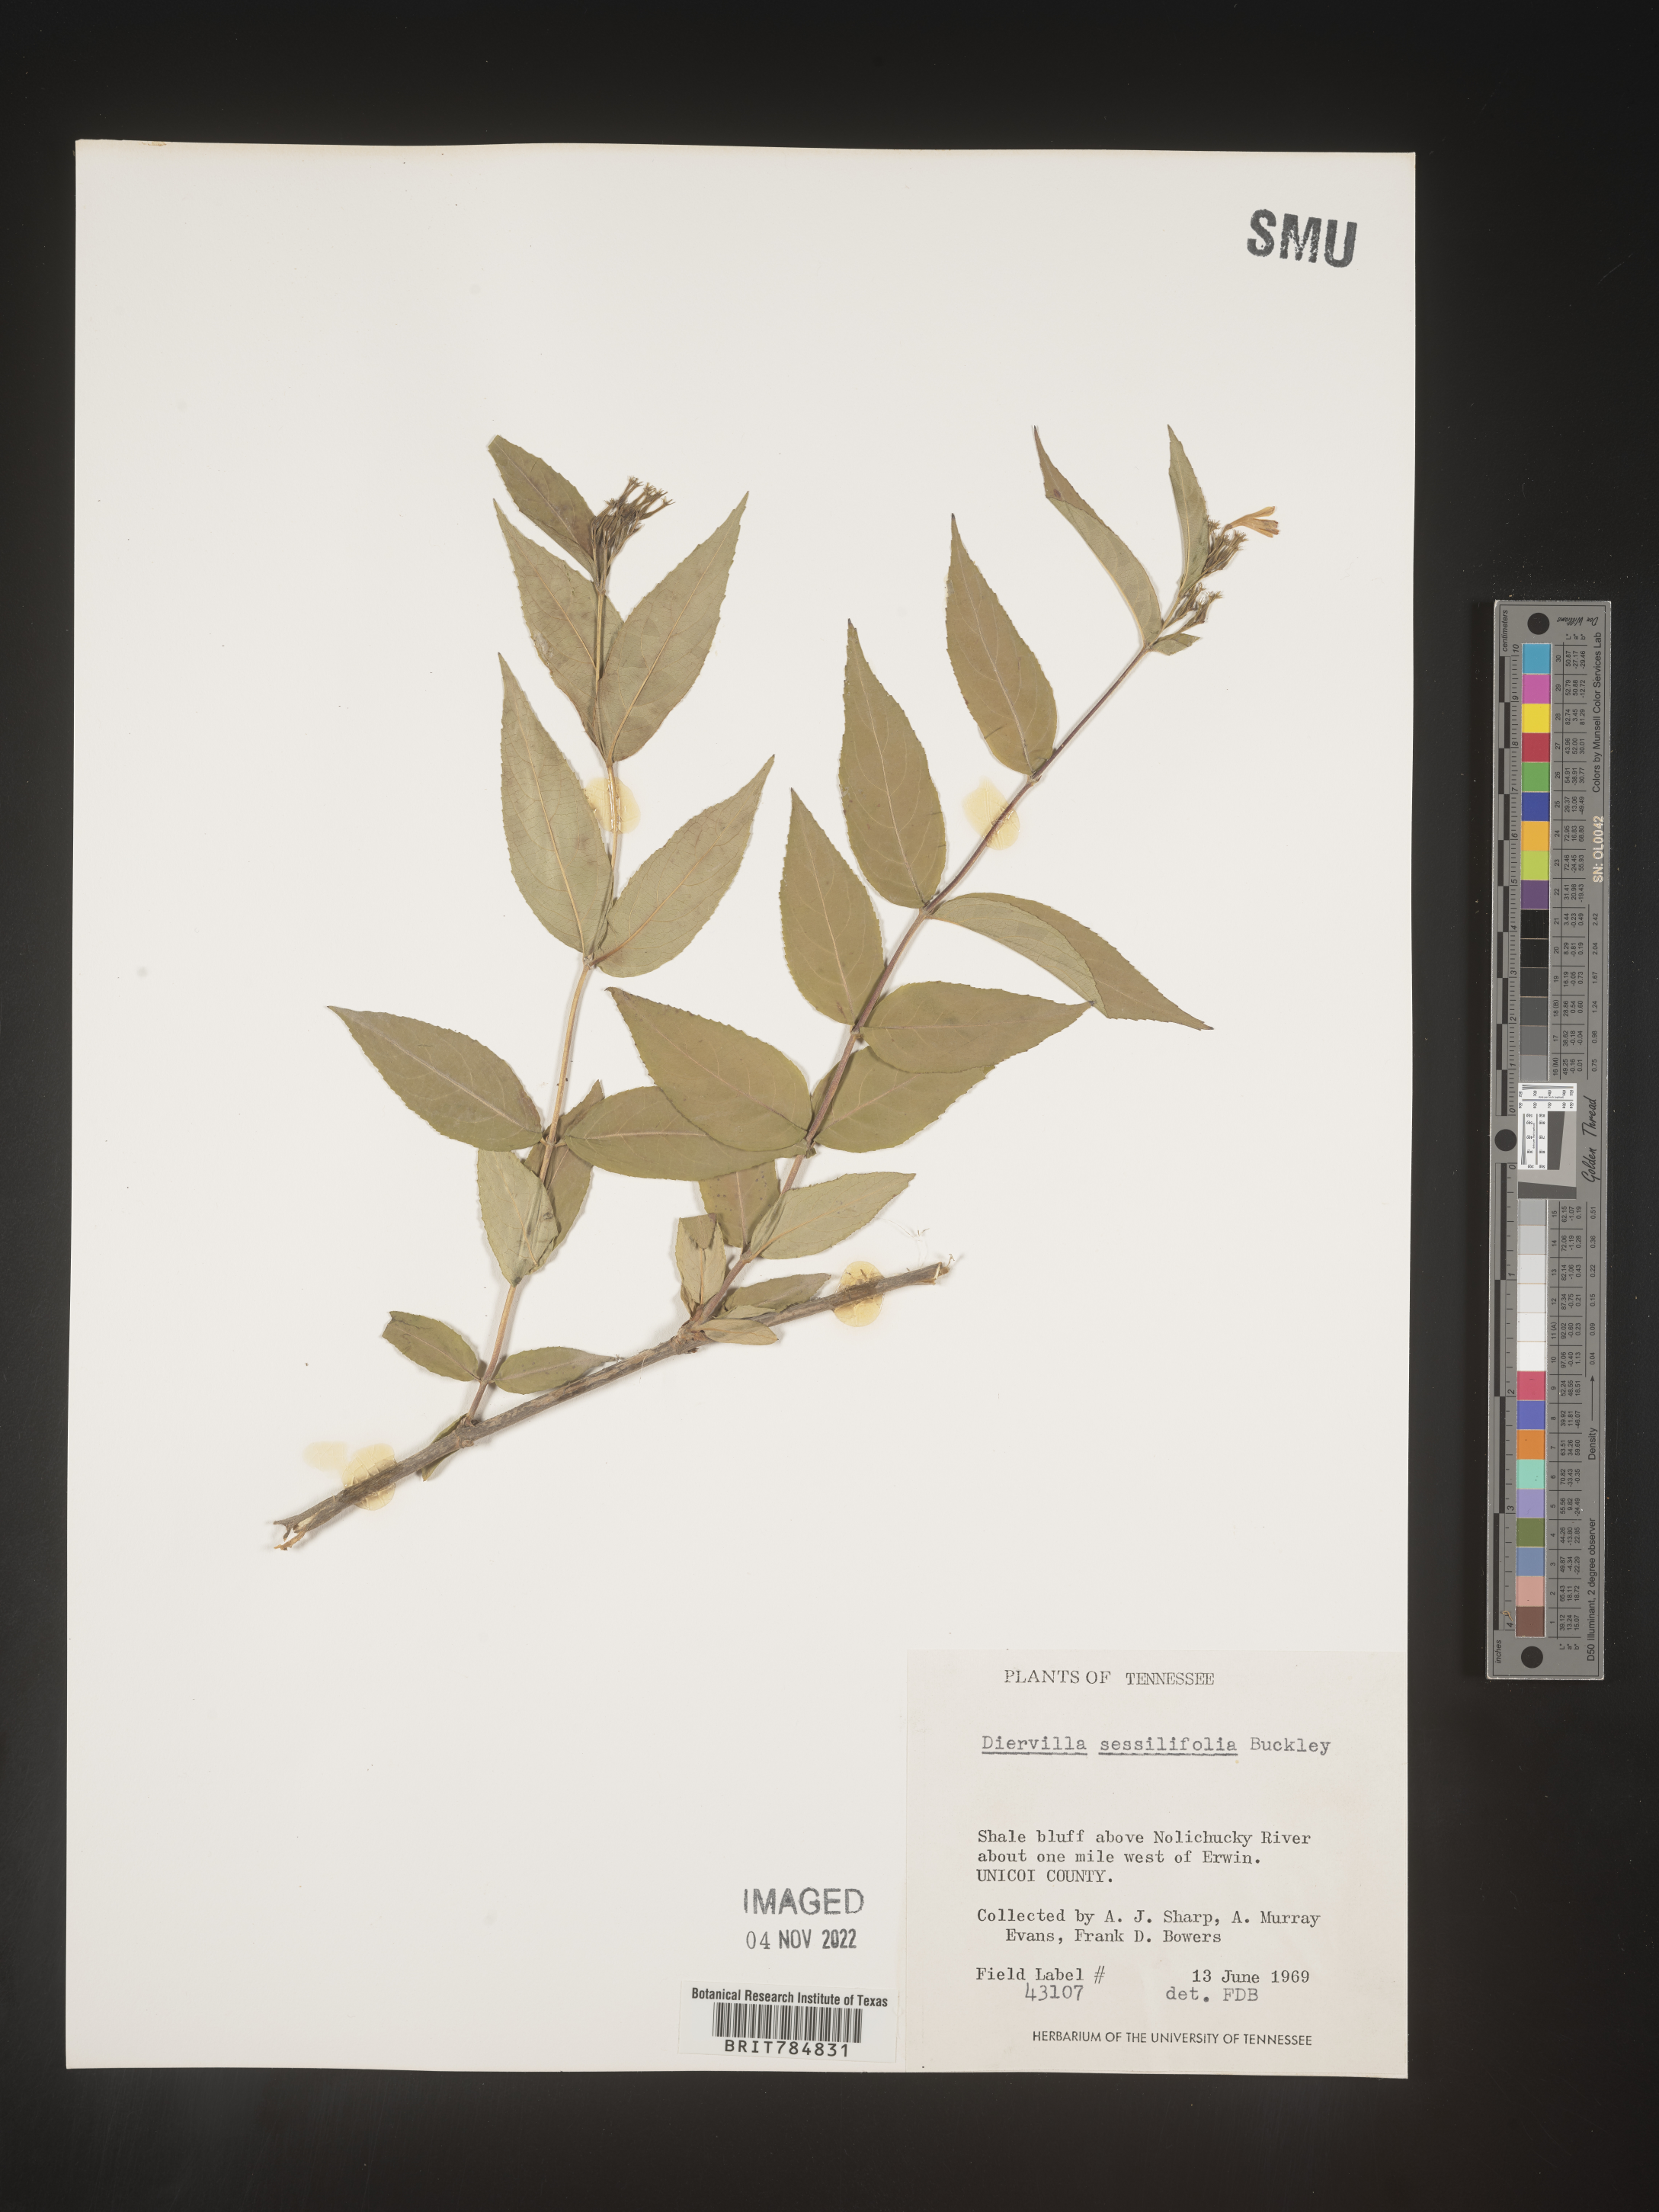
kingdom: Plantae
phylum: Tracheophyta
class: Magnoliopsida
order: Dipsacales
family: Caprifoliaceae
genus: Diervilla
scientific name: Diervilla
